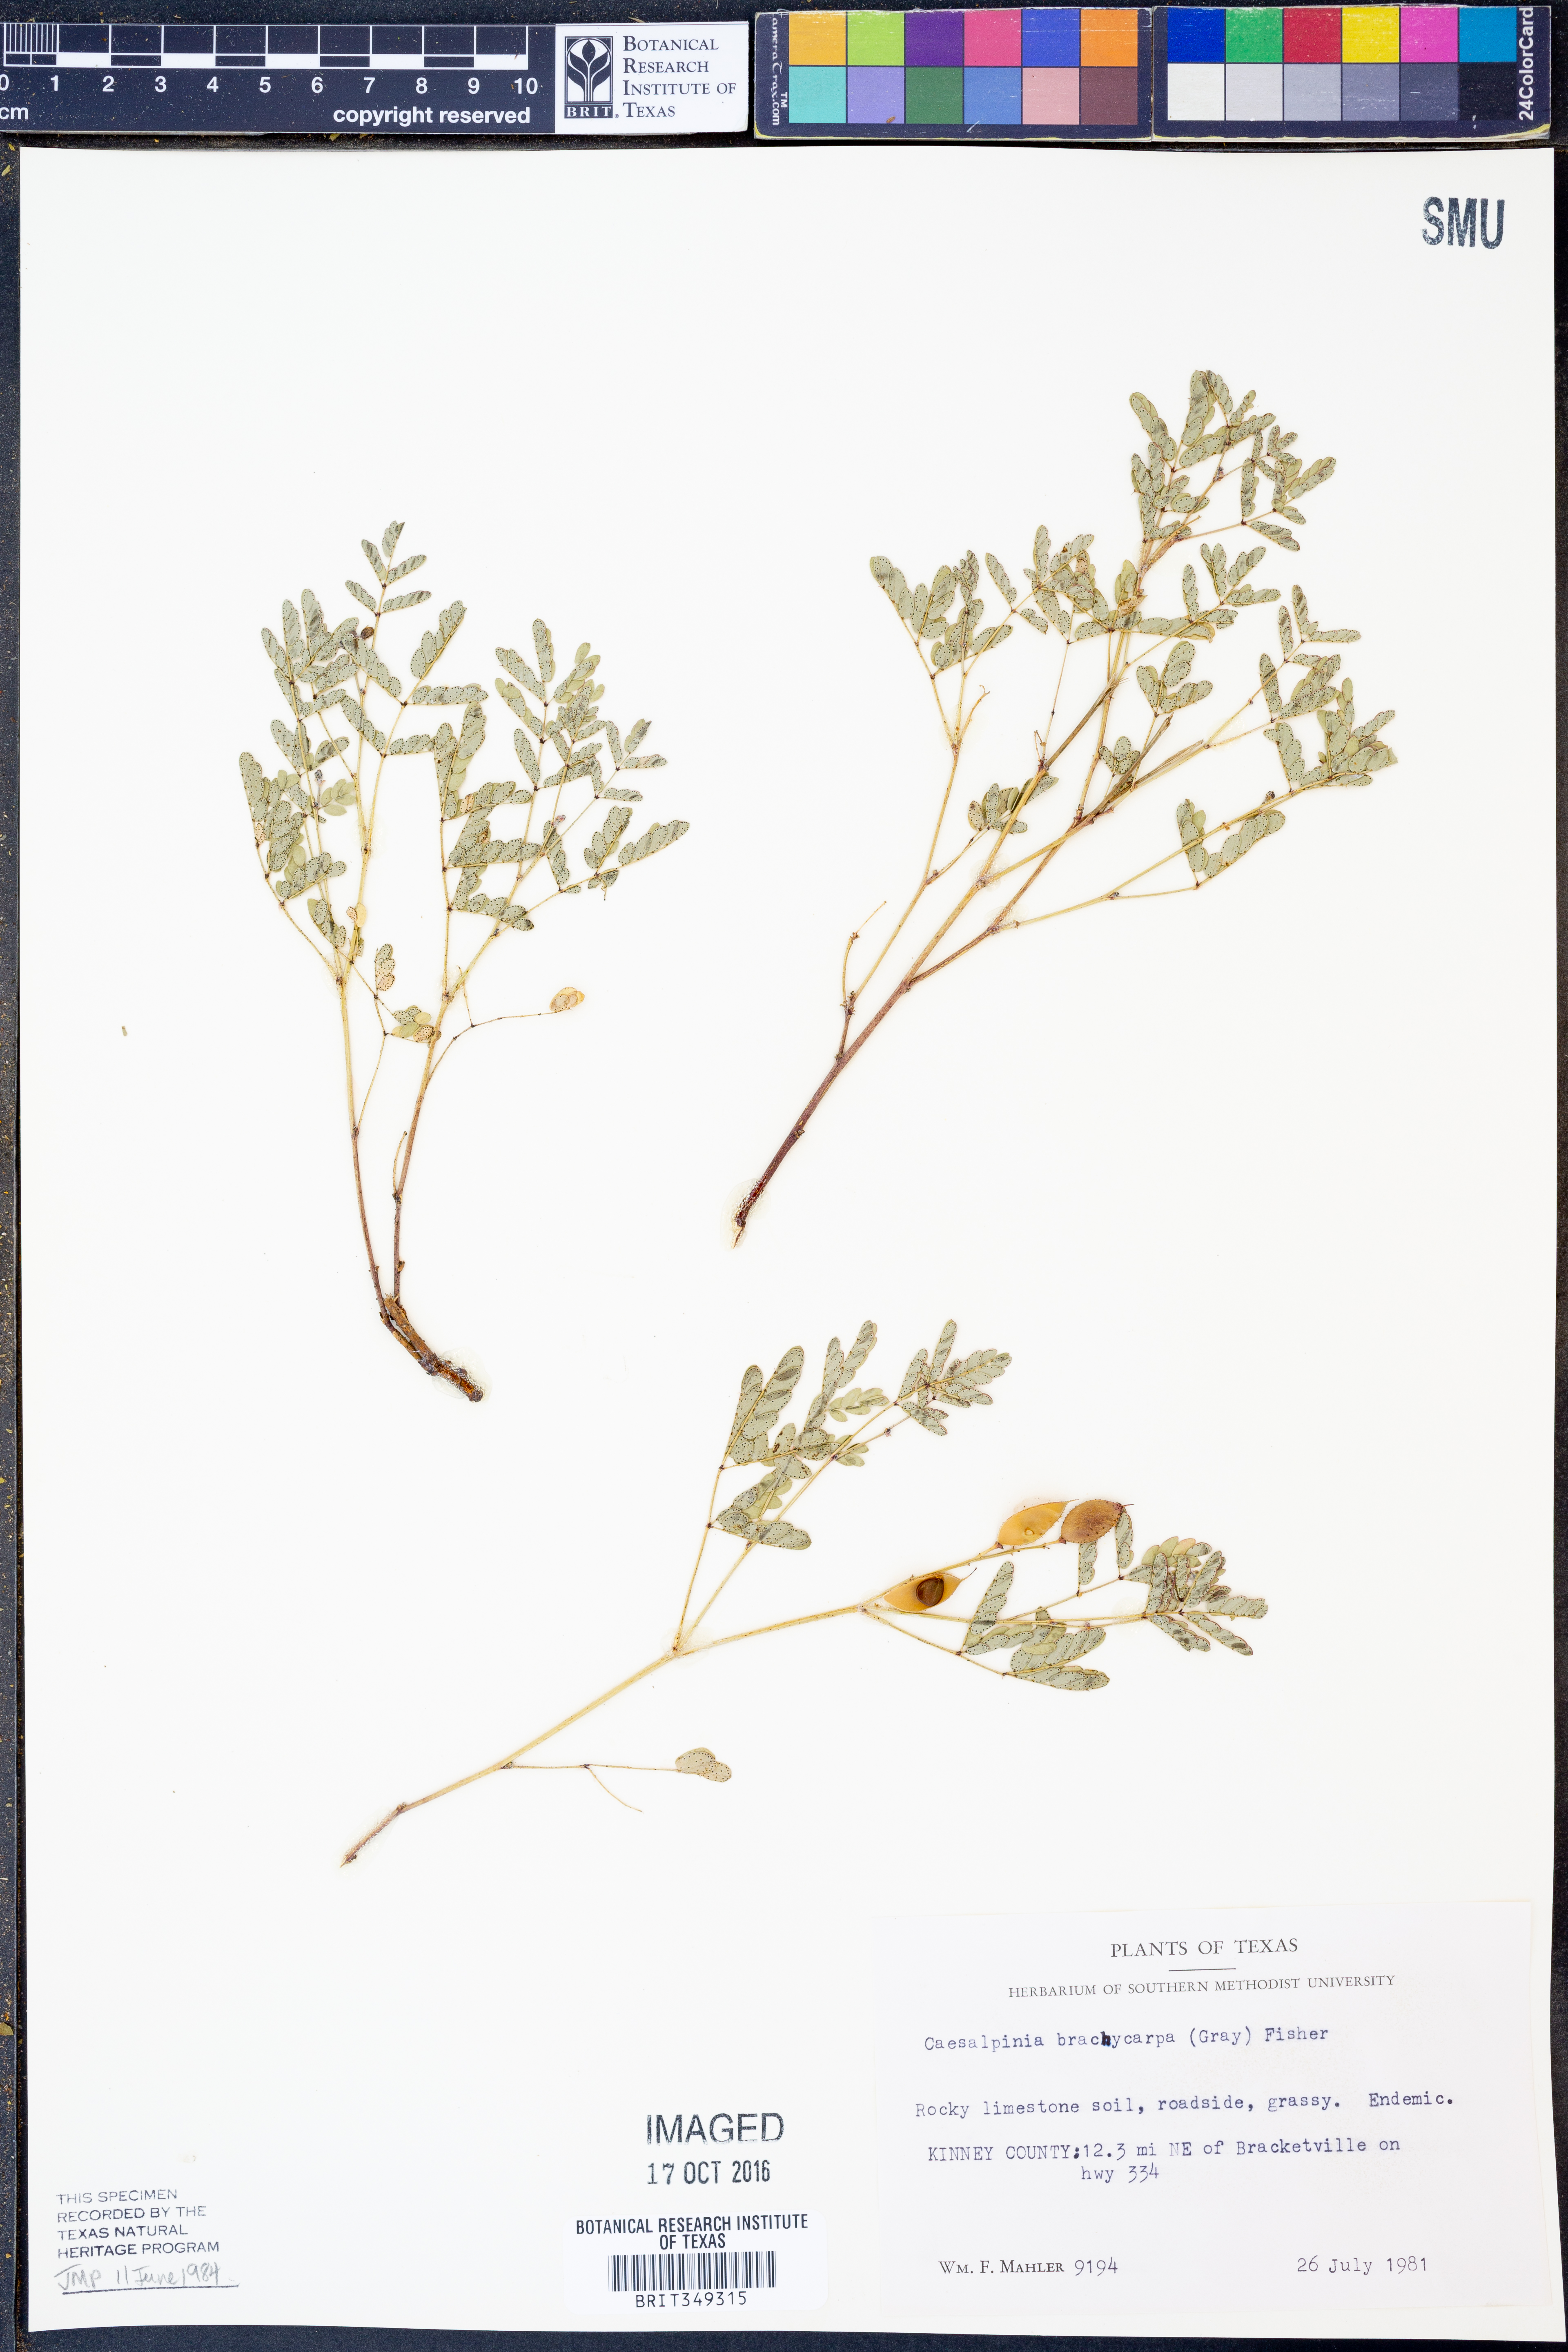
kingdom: Plantae
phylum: Tracheophyta
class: Magnoliopsida
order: Fabales
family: Fabaceae
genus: Pomaria
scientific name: Pomaria brachycarpa
